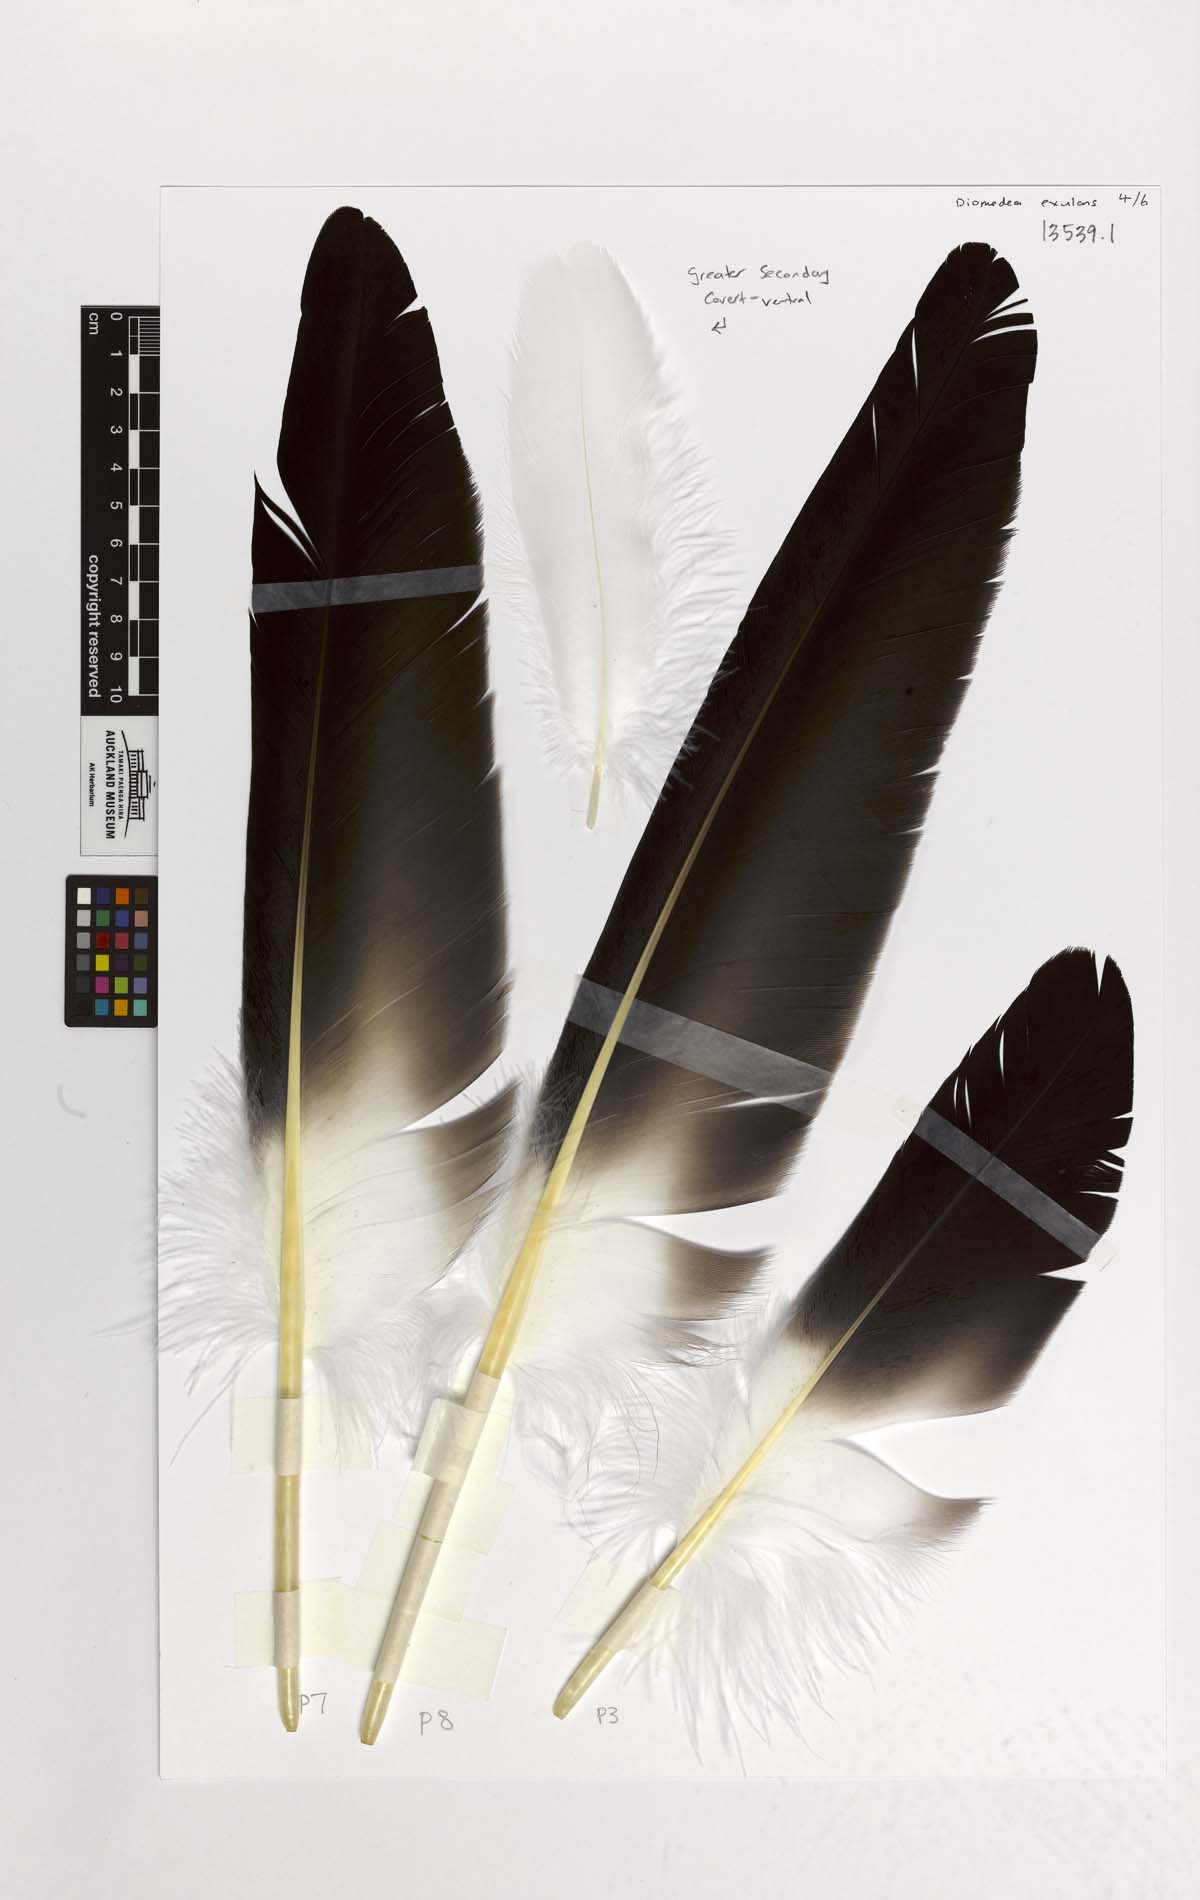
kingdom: Animalia
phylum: Chordata
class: Aves
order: Procellariiformes
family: Diomedeidae
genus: Diomedea
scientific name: Diomedea antipodensis
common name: Antipodean albatross
